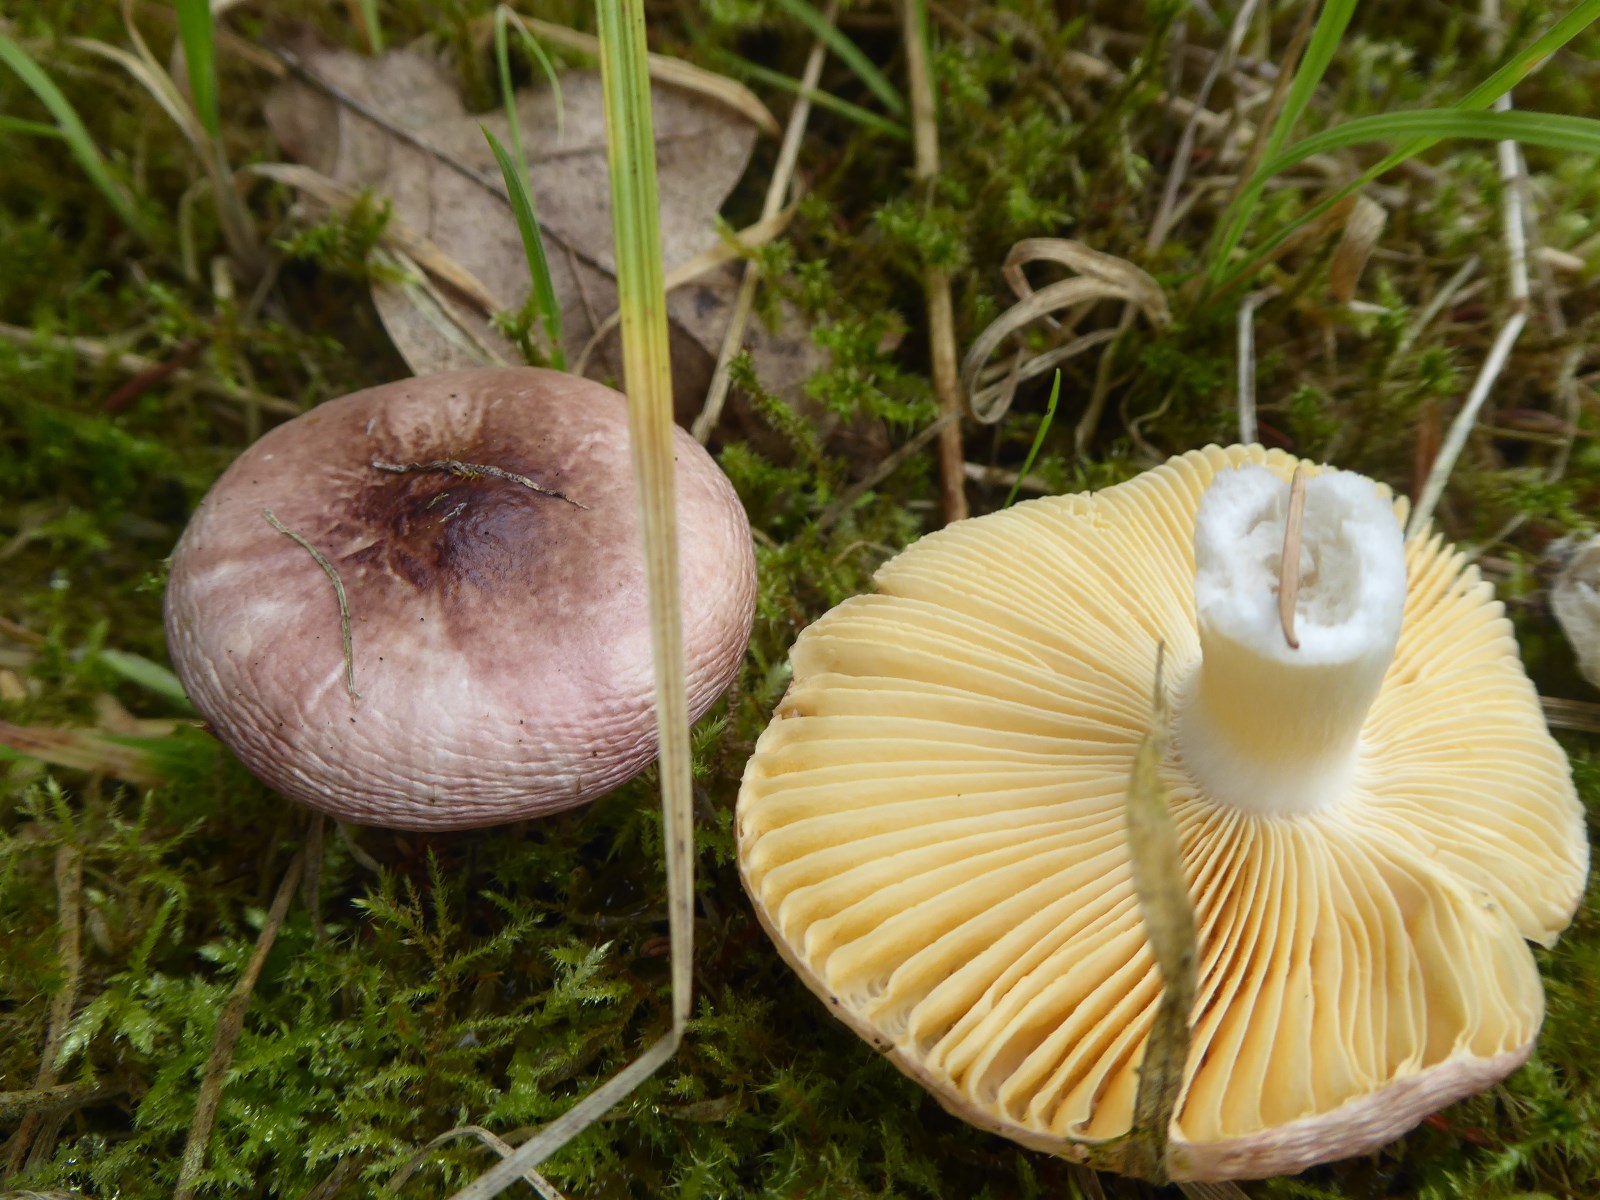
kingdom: Fungi
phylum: Basidiomycota
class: Agaricomycetes
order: Russulales
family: Russulaceae
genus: Russula
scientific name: Russula odorata
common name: duft-skørhat
